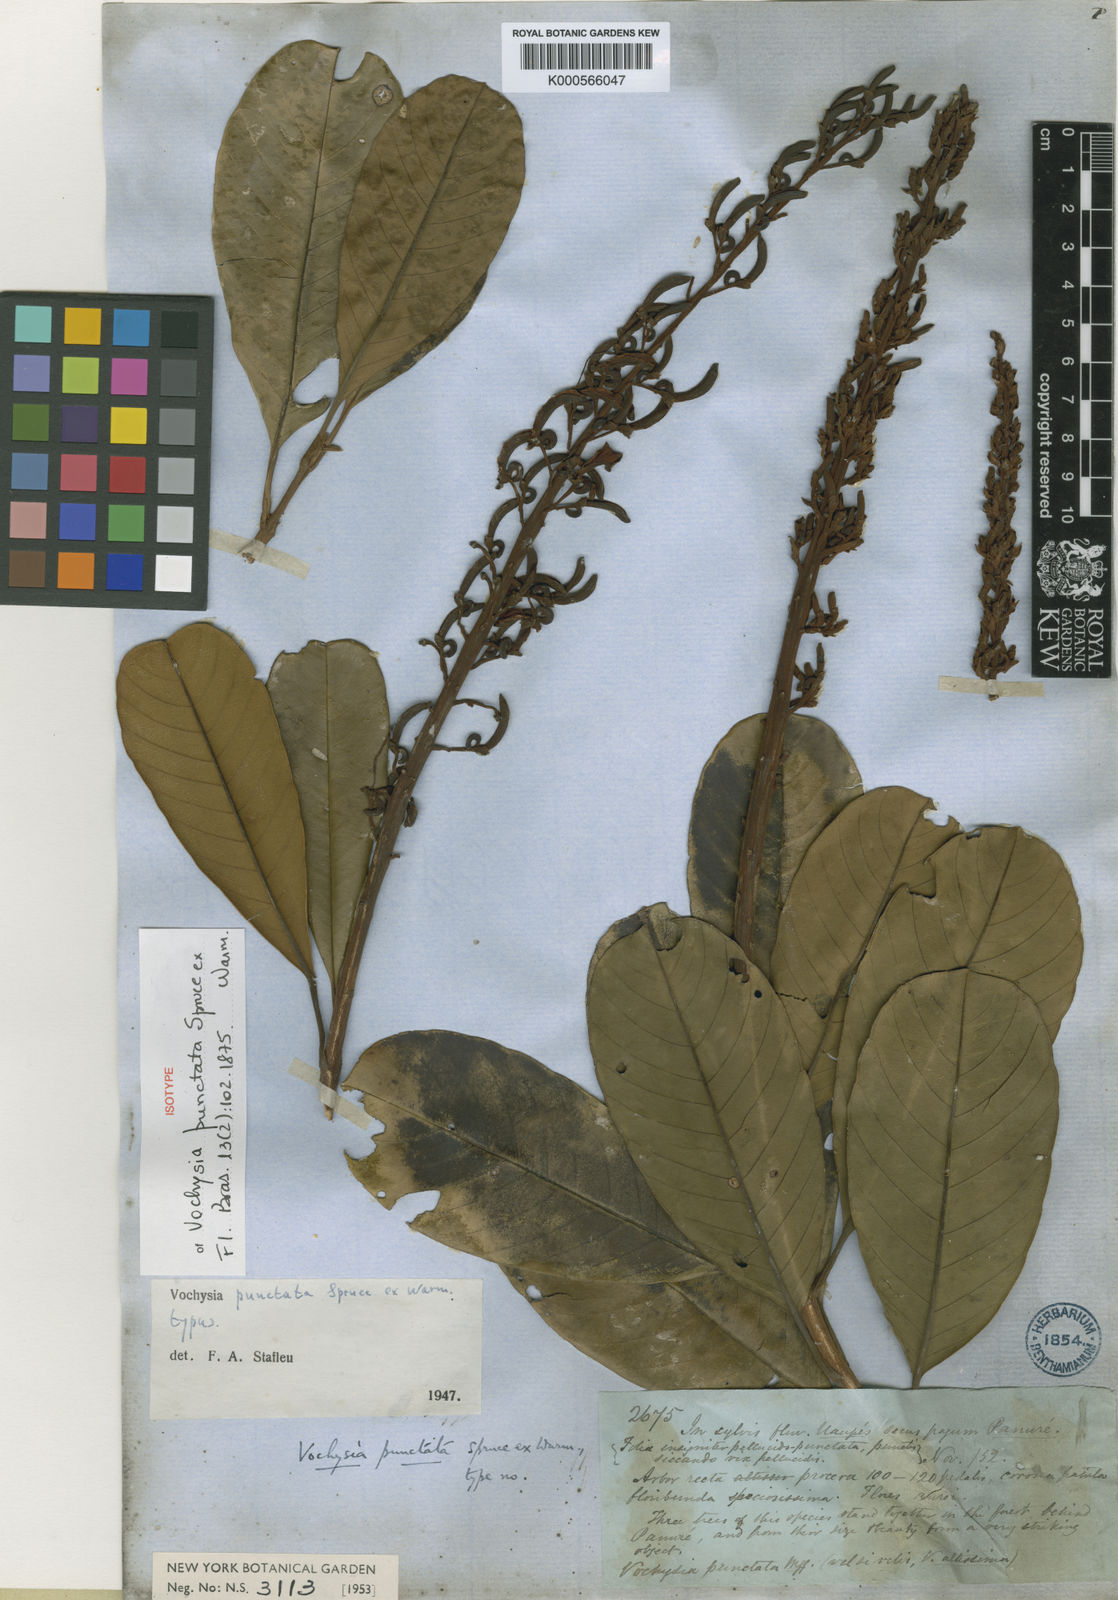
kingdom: Plantae
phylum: Tracheophyta
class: Magnoliopsida
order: Myrtales
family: Vochysiaceae
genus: Vochysia
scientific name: Vochysia punctata
